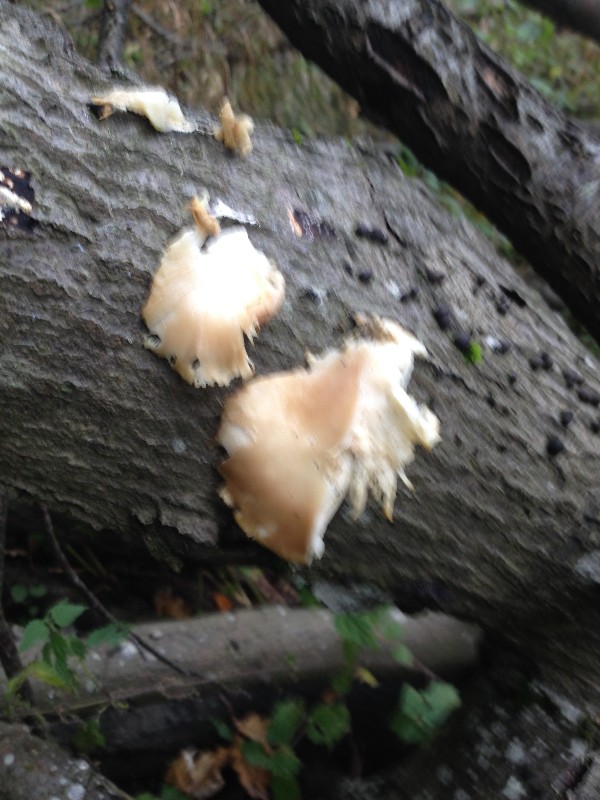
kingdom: Fungi
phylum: Basidiomycota
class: Agaricomycetes
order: Agaricales
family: Pleurotaceae
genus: Pleurotus
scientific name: Pleurotus ostreatus
